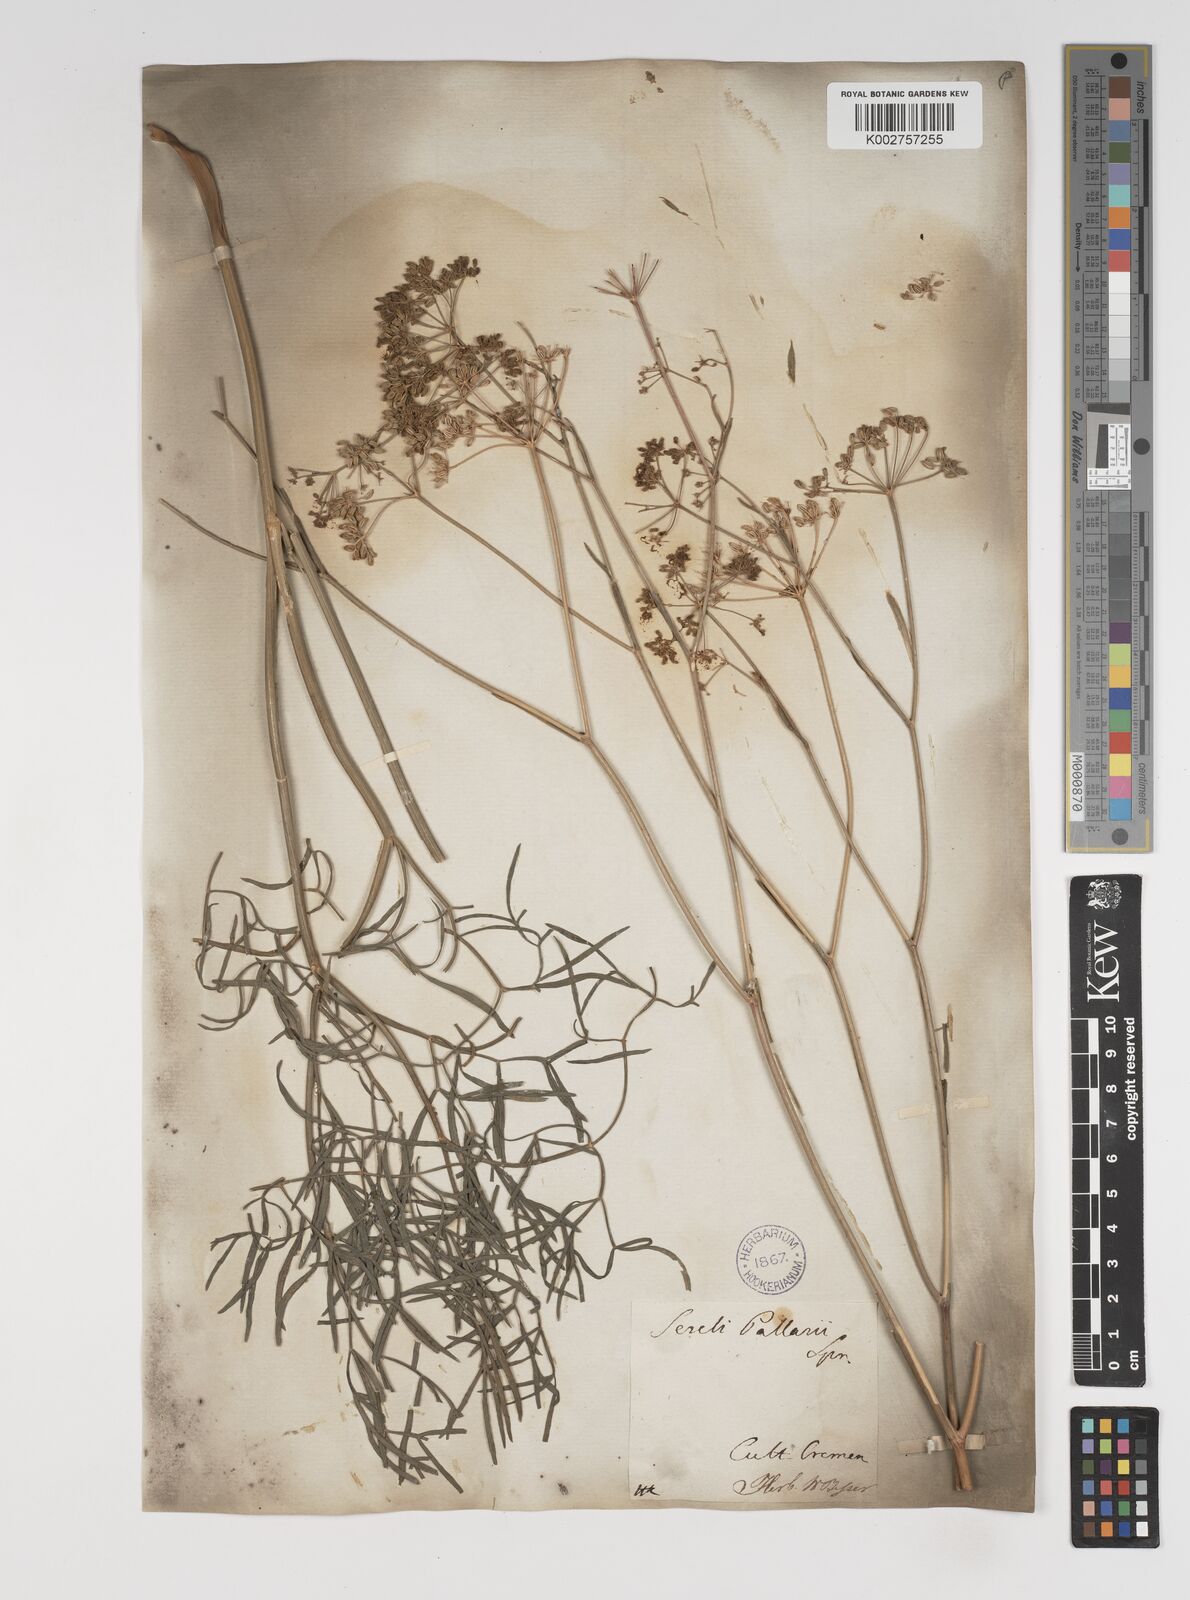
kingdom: Plantae
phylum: Tracheophyta
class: Magnoliopsida
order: Apiales
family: Apiaceae
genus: Seseli
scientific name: Seseli pallasii
